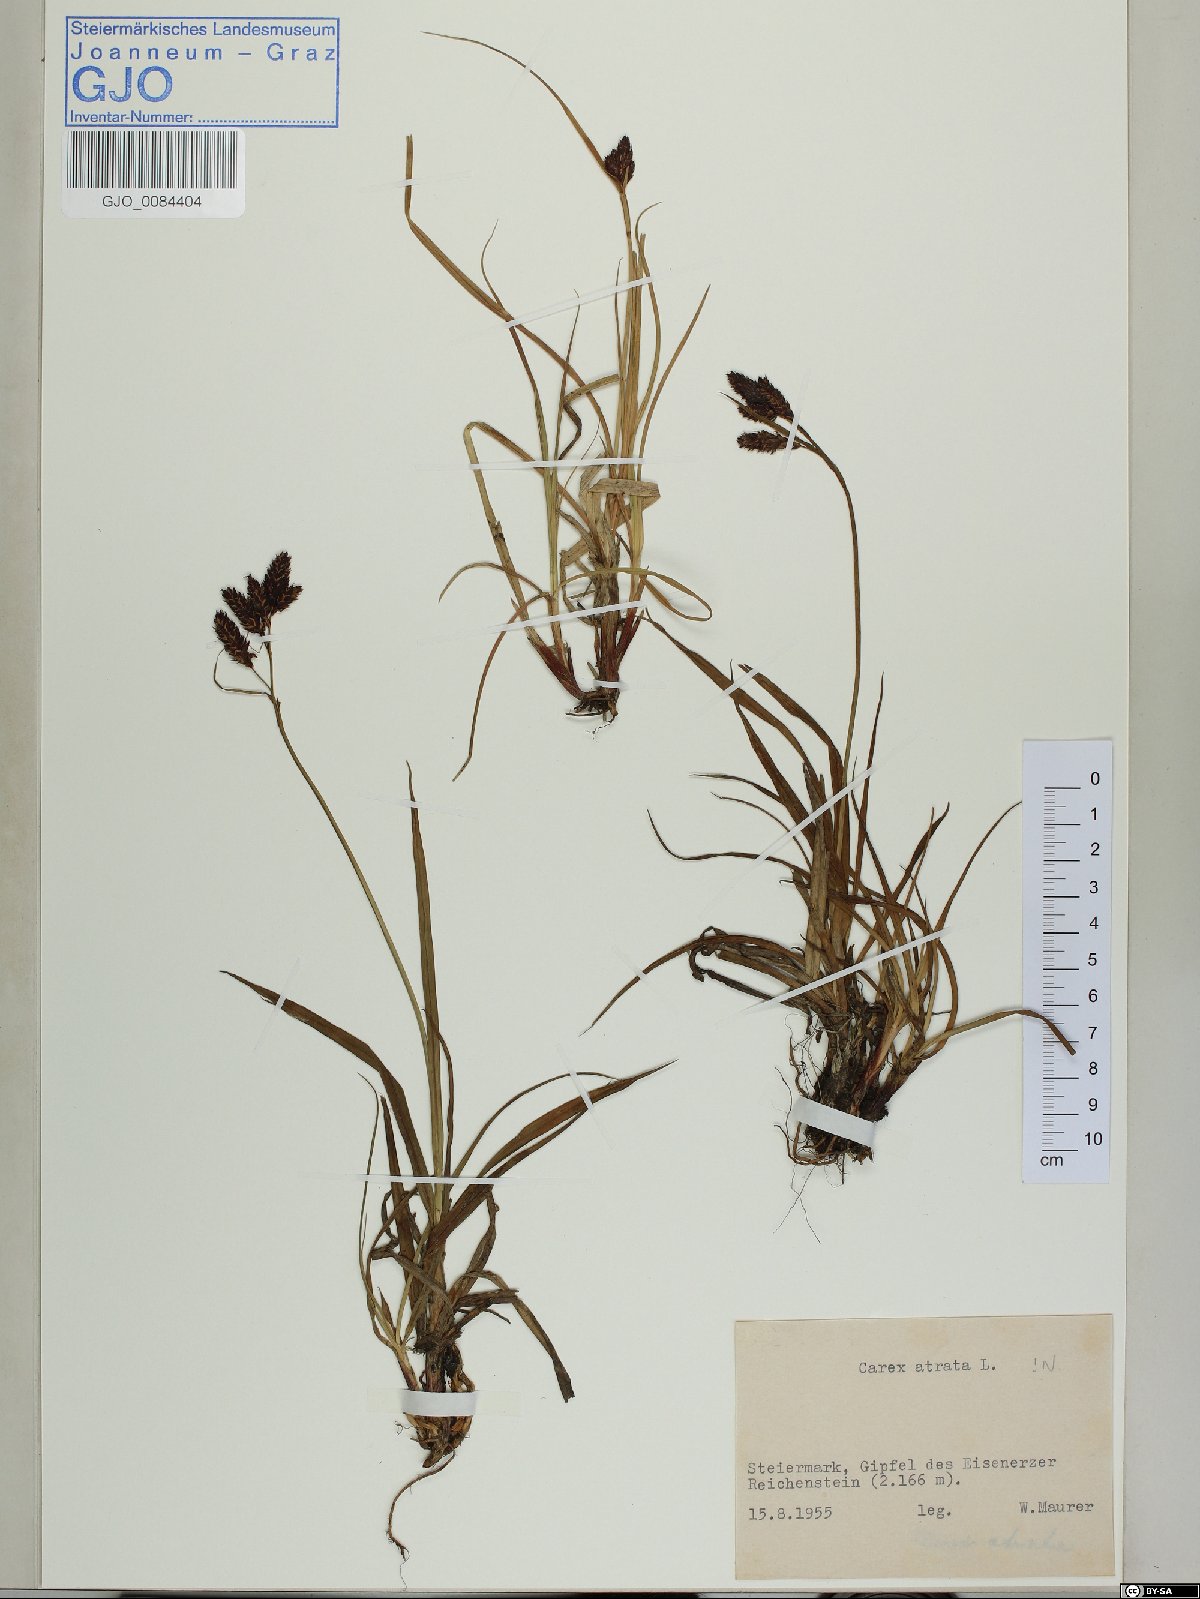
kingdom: Plantae
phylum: Tracheophyta
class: Liliopsida
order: Poales
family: Cyperaceae
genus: Carex
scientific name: Carex atrata
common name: Black alpine sedge
